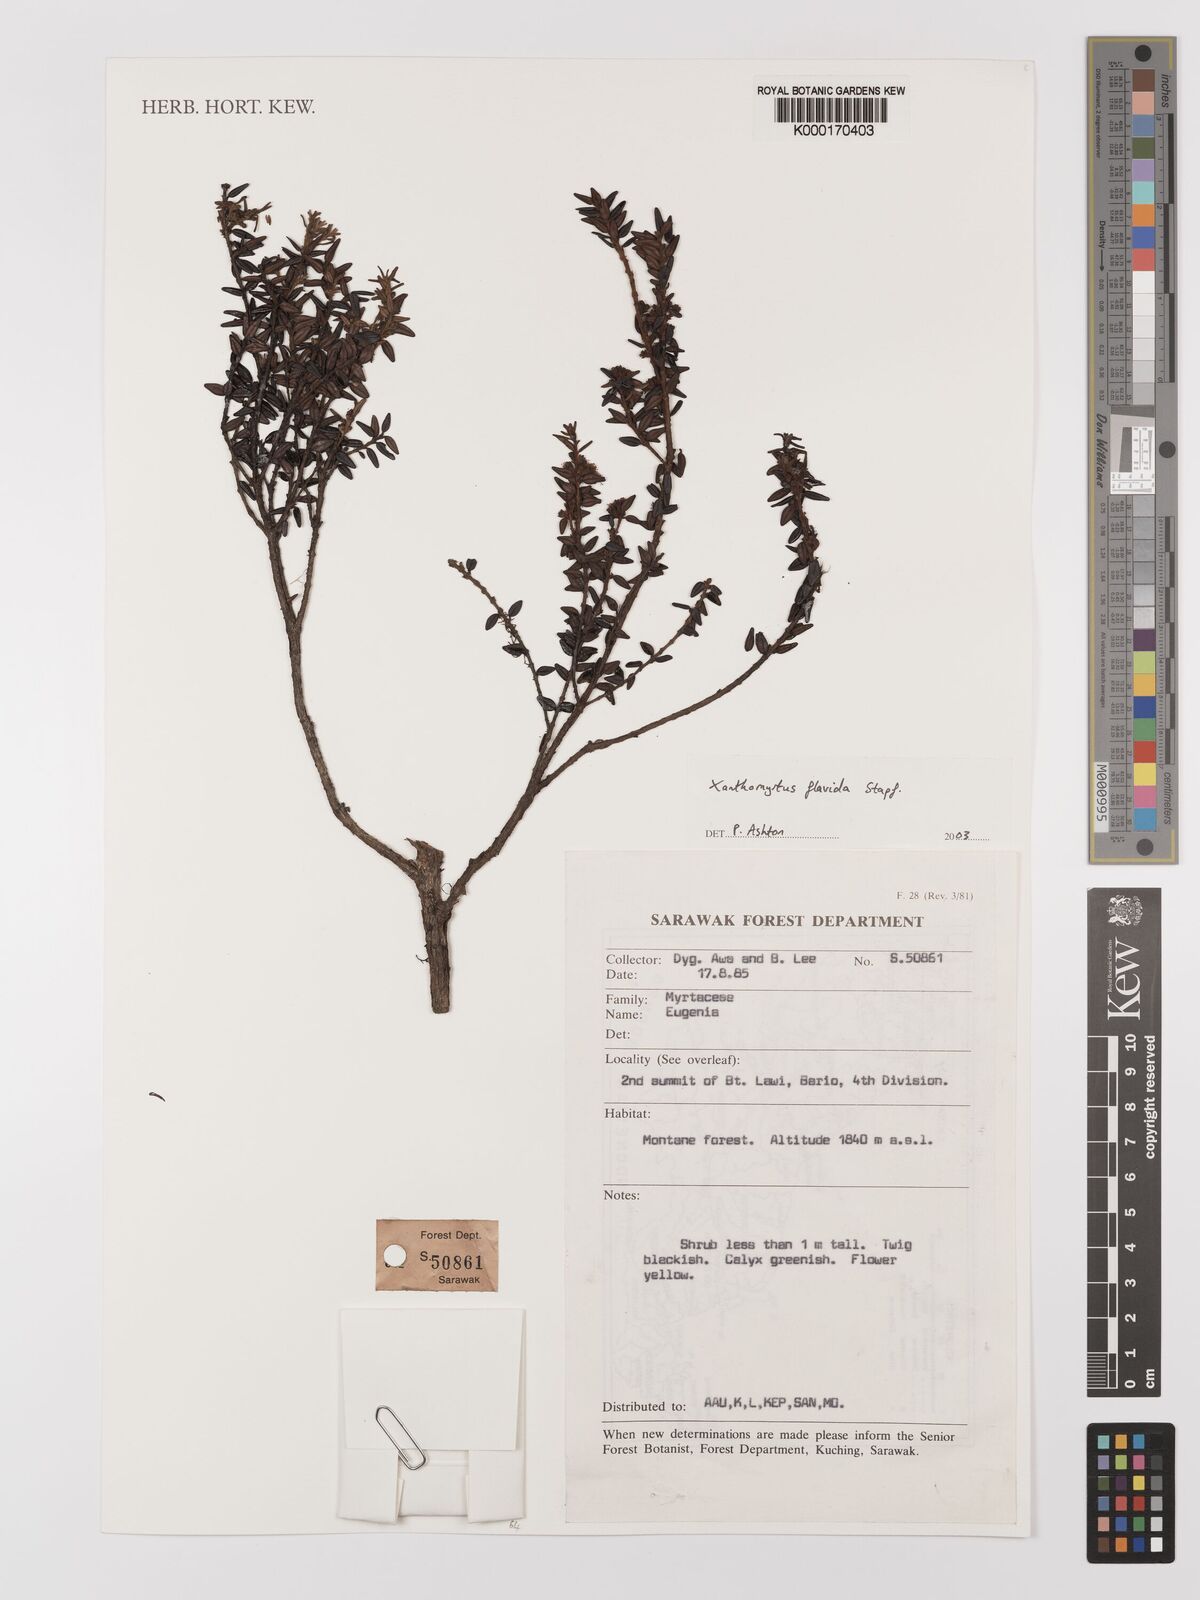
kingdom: Plantae
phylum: Tracheophyta
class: Magnoliopsida
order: Myrtales
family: Myrtaceae
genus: Xanthomyrtus
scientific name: Xanthomyrtus flavida
